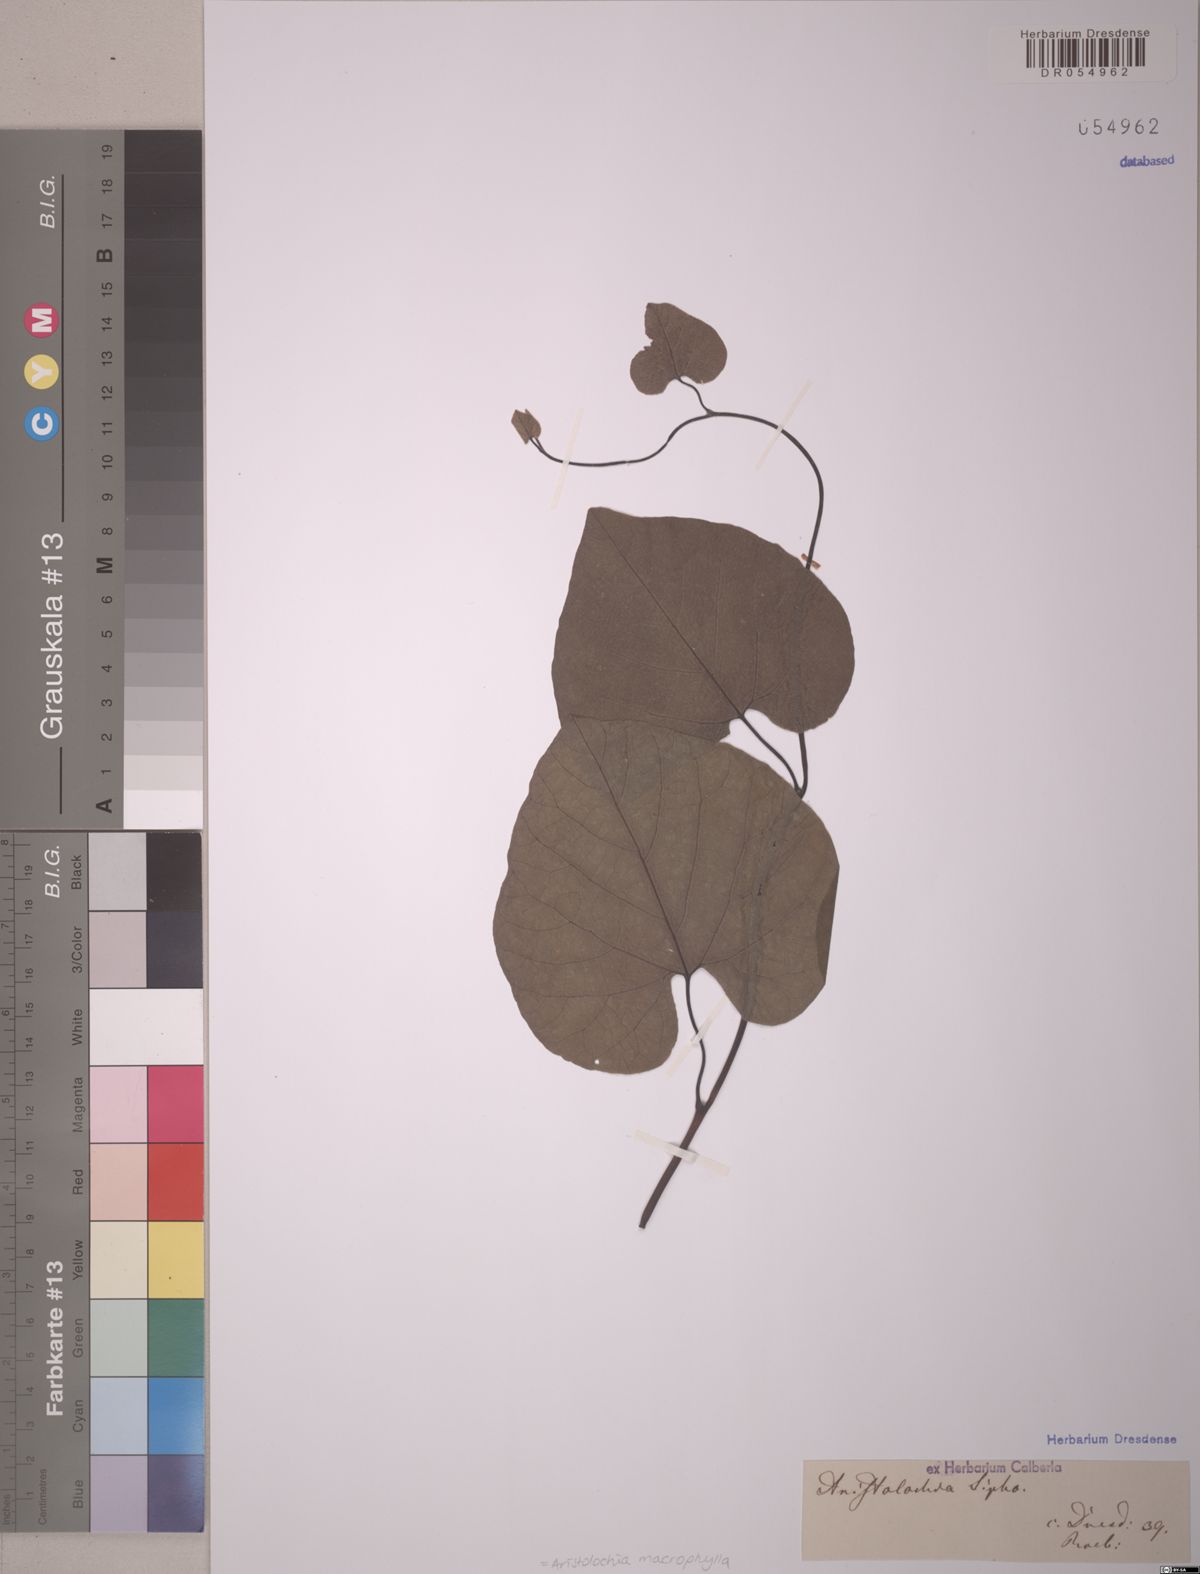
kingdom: Plantae
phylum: Tracheophyta
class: Magnoliopsida
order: Piperales
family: Aristolochiaceae
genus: Isotrema
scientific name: Isotrema macrophyllum
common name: Dutchman's-pipe
